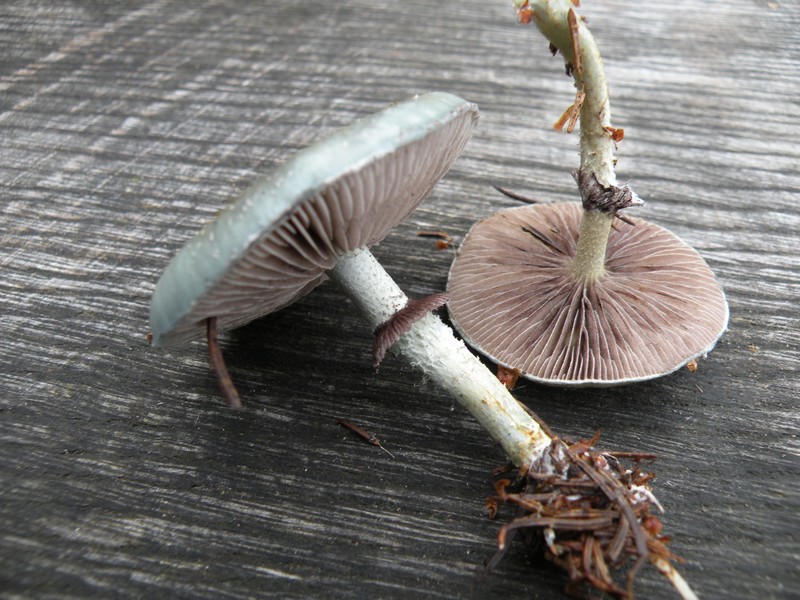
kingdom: Fungi
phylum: Basidiomycota
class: Agaricomycetes
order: Agaricales
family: Strophariaceae
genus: Stropharia
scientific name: Stropharia aeruginosa
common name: spanskgrøn bredblad
